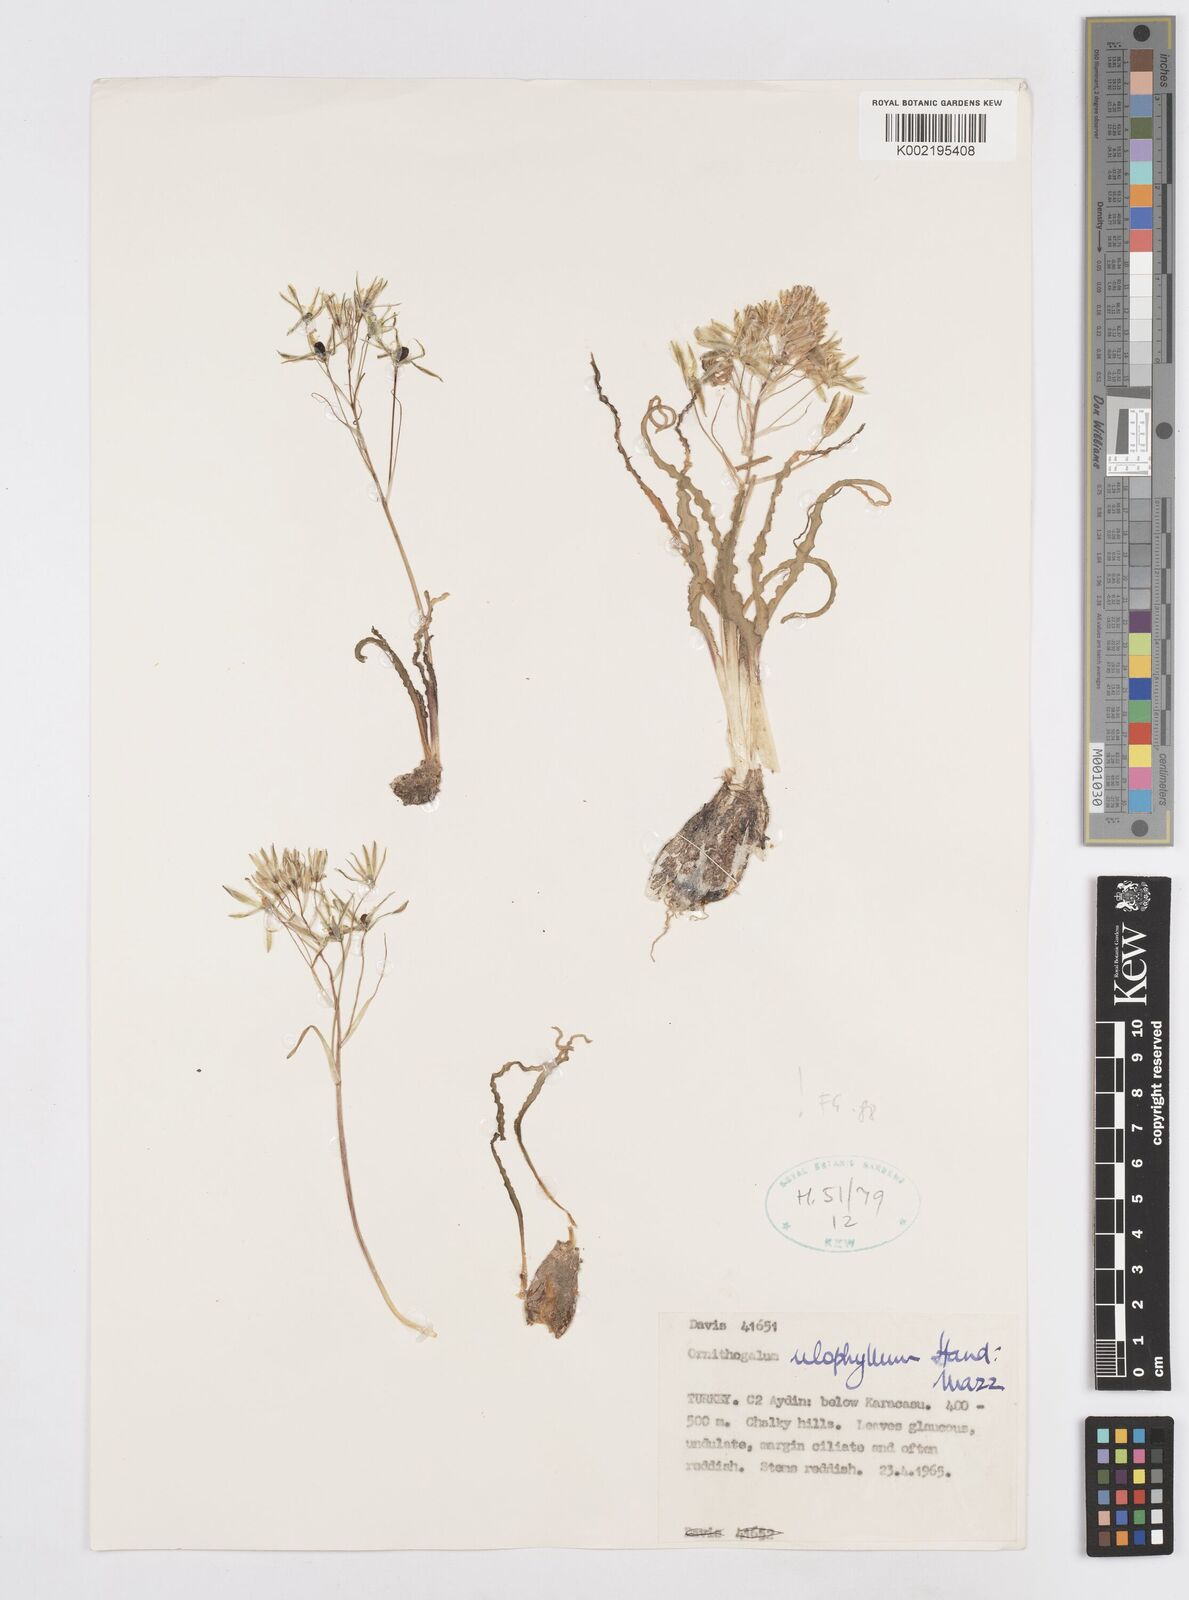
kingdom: Plantae
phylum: Tracheophyta
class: Liliopsida
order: Asparagales
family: Asparagaceae
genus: Ornithogalum
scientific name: Ornithogalum neurostegium
